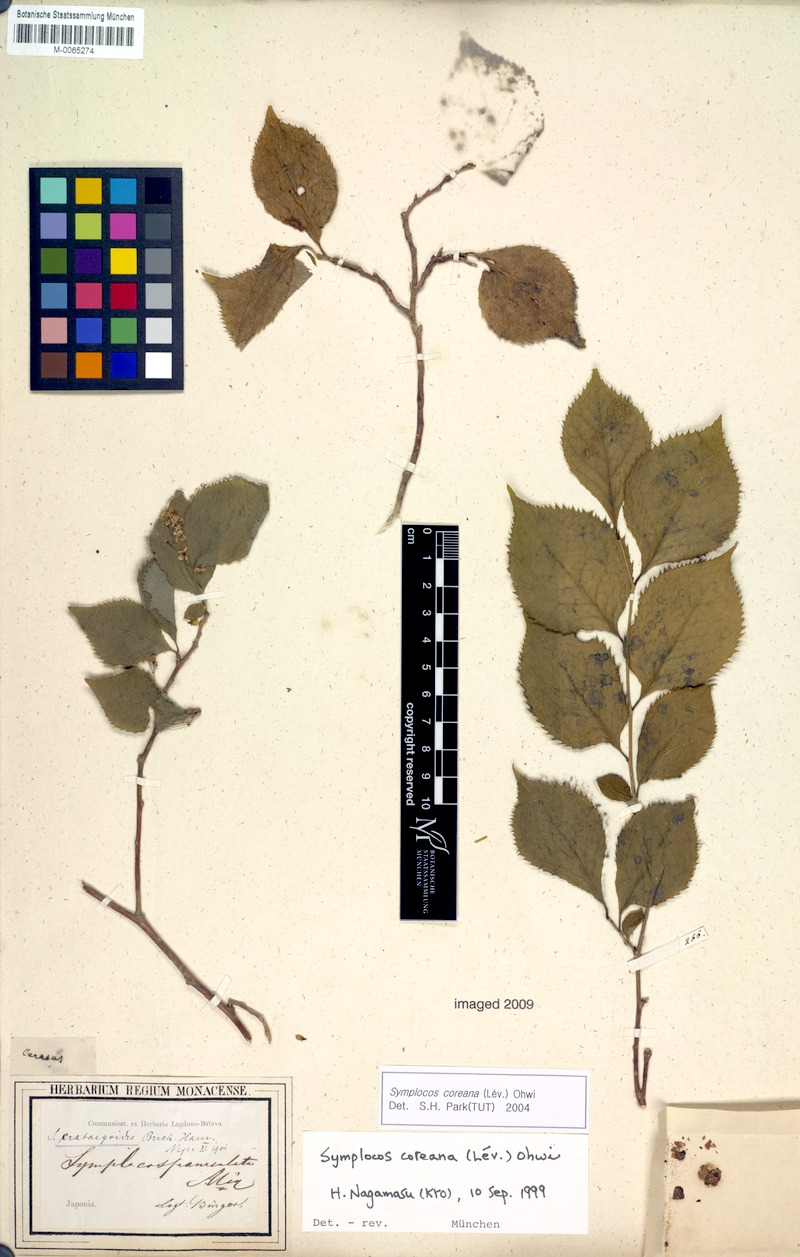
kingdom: Plantae
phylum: Tracheophyta
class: Magnoliopsida
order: Ericales
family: Symplocaceae
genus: Symplocos
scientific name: Symplocos coreana
